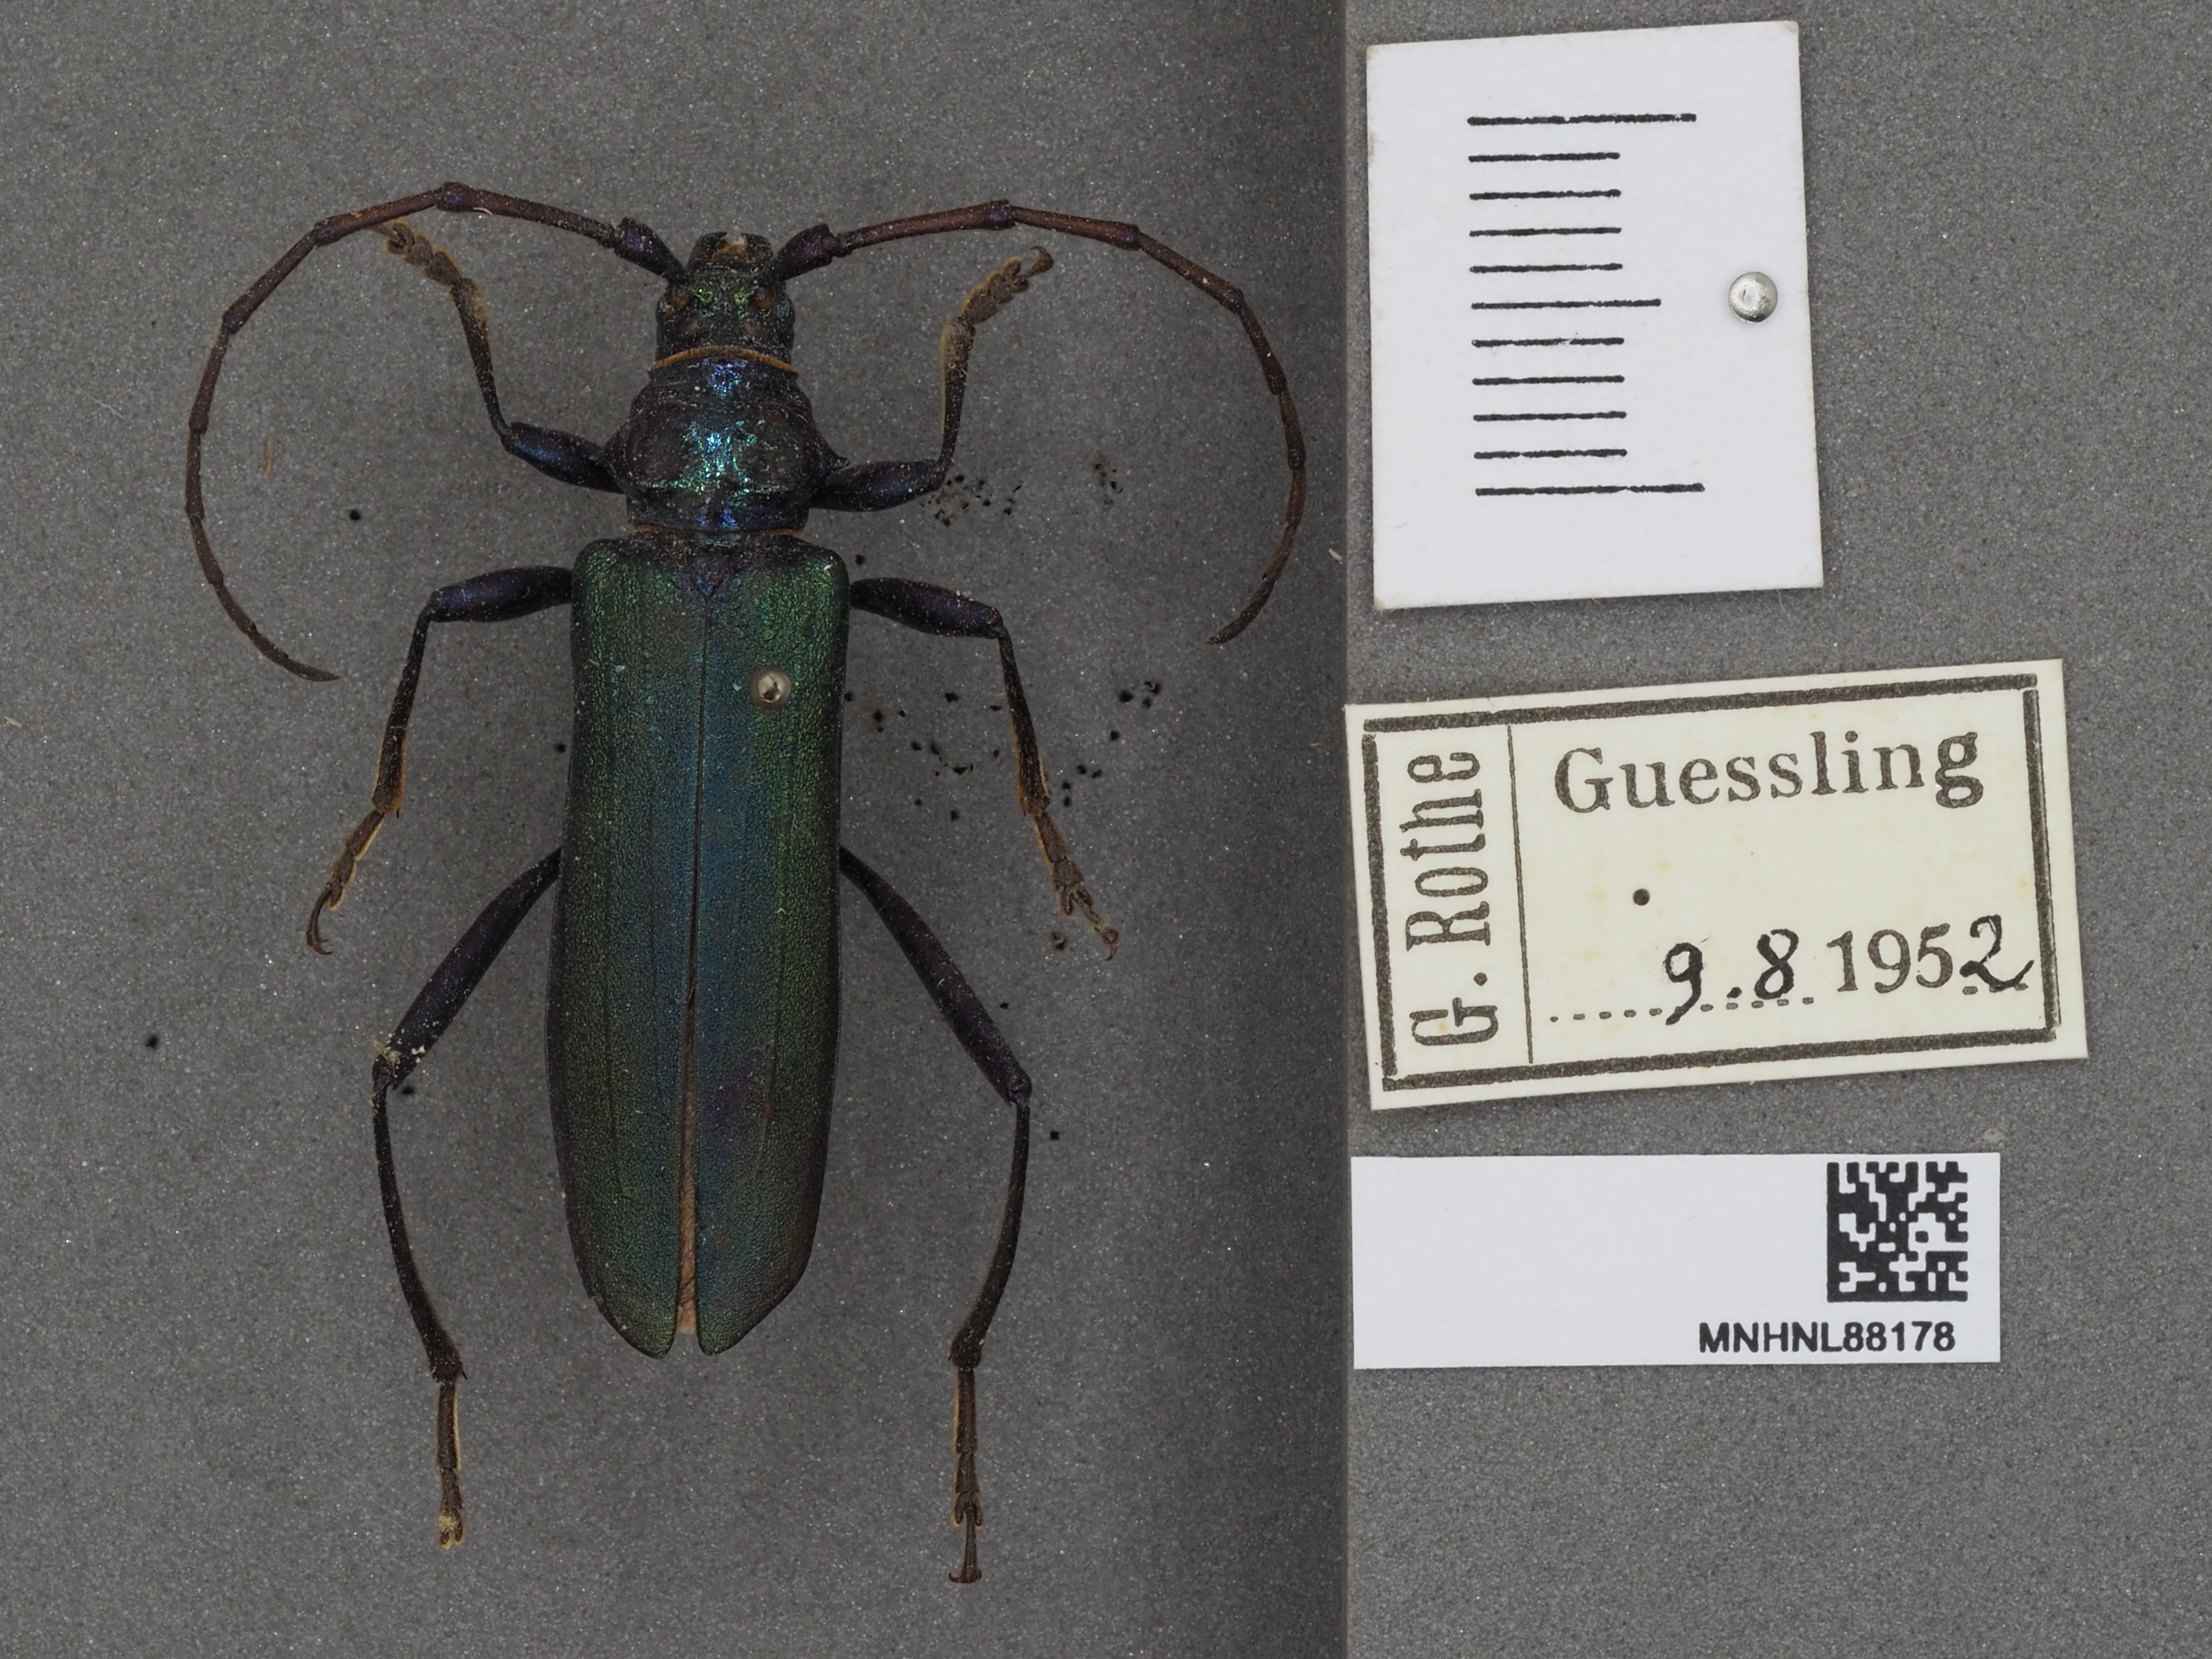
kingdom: Animalia
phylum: Arthropoda
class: Insecta
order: Coleoptera
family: Cerambycidae
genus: Aromia
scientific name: Aromia moschata
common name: Musk beetle
